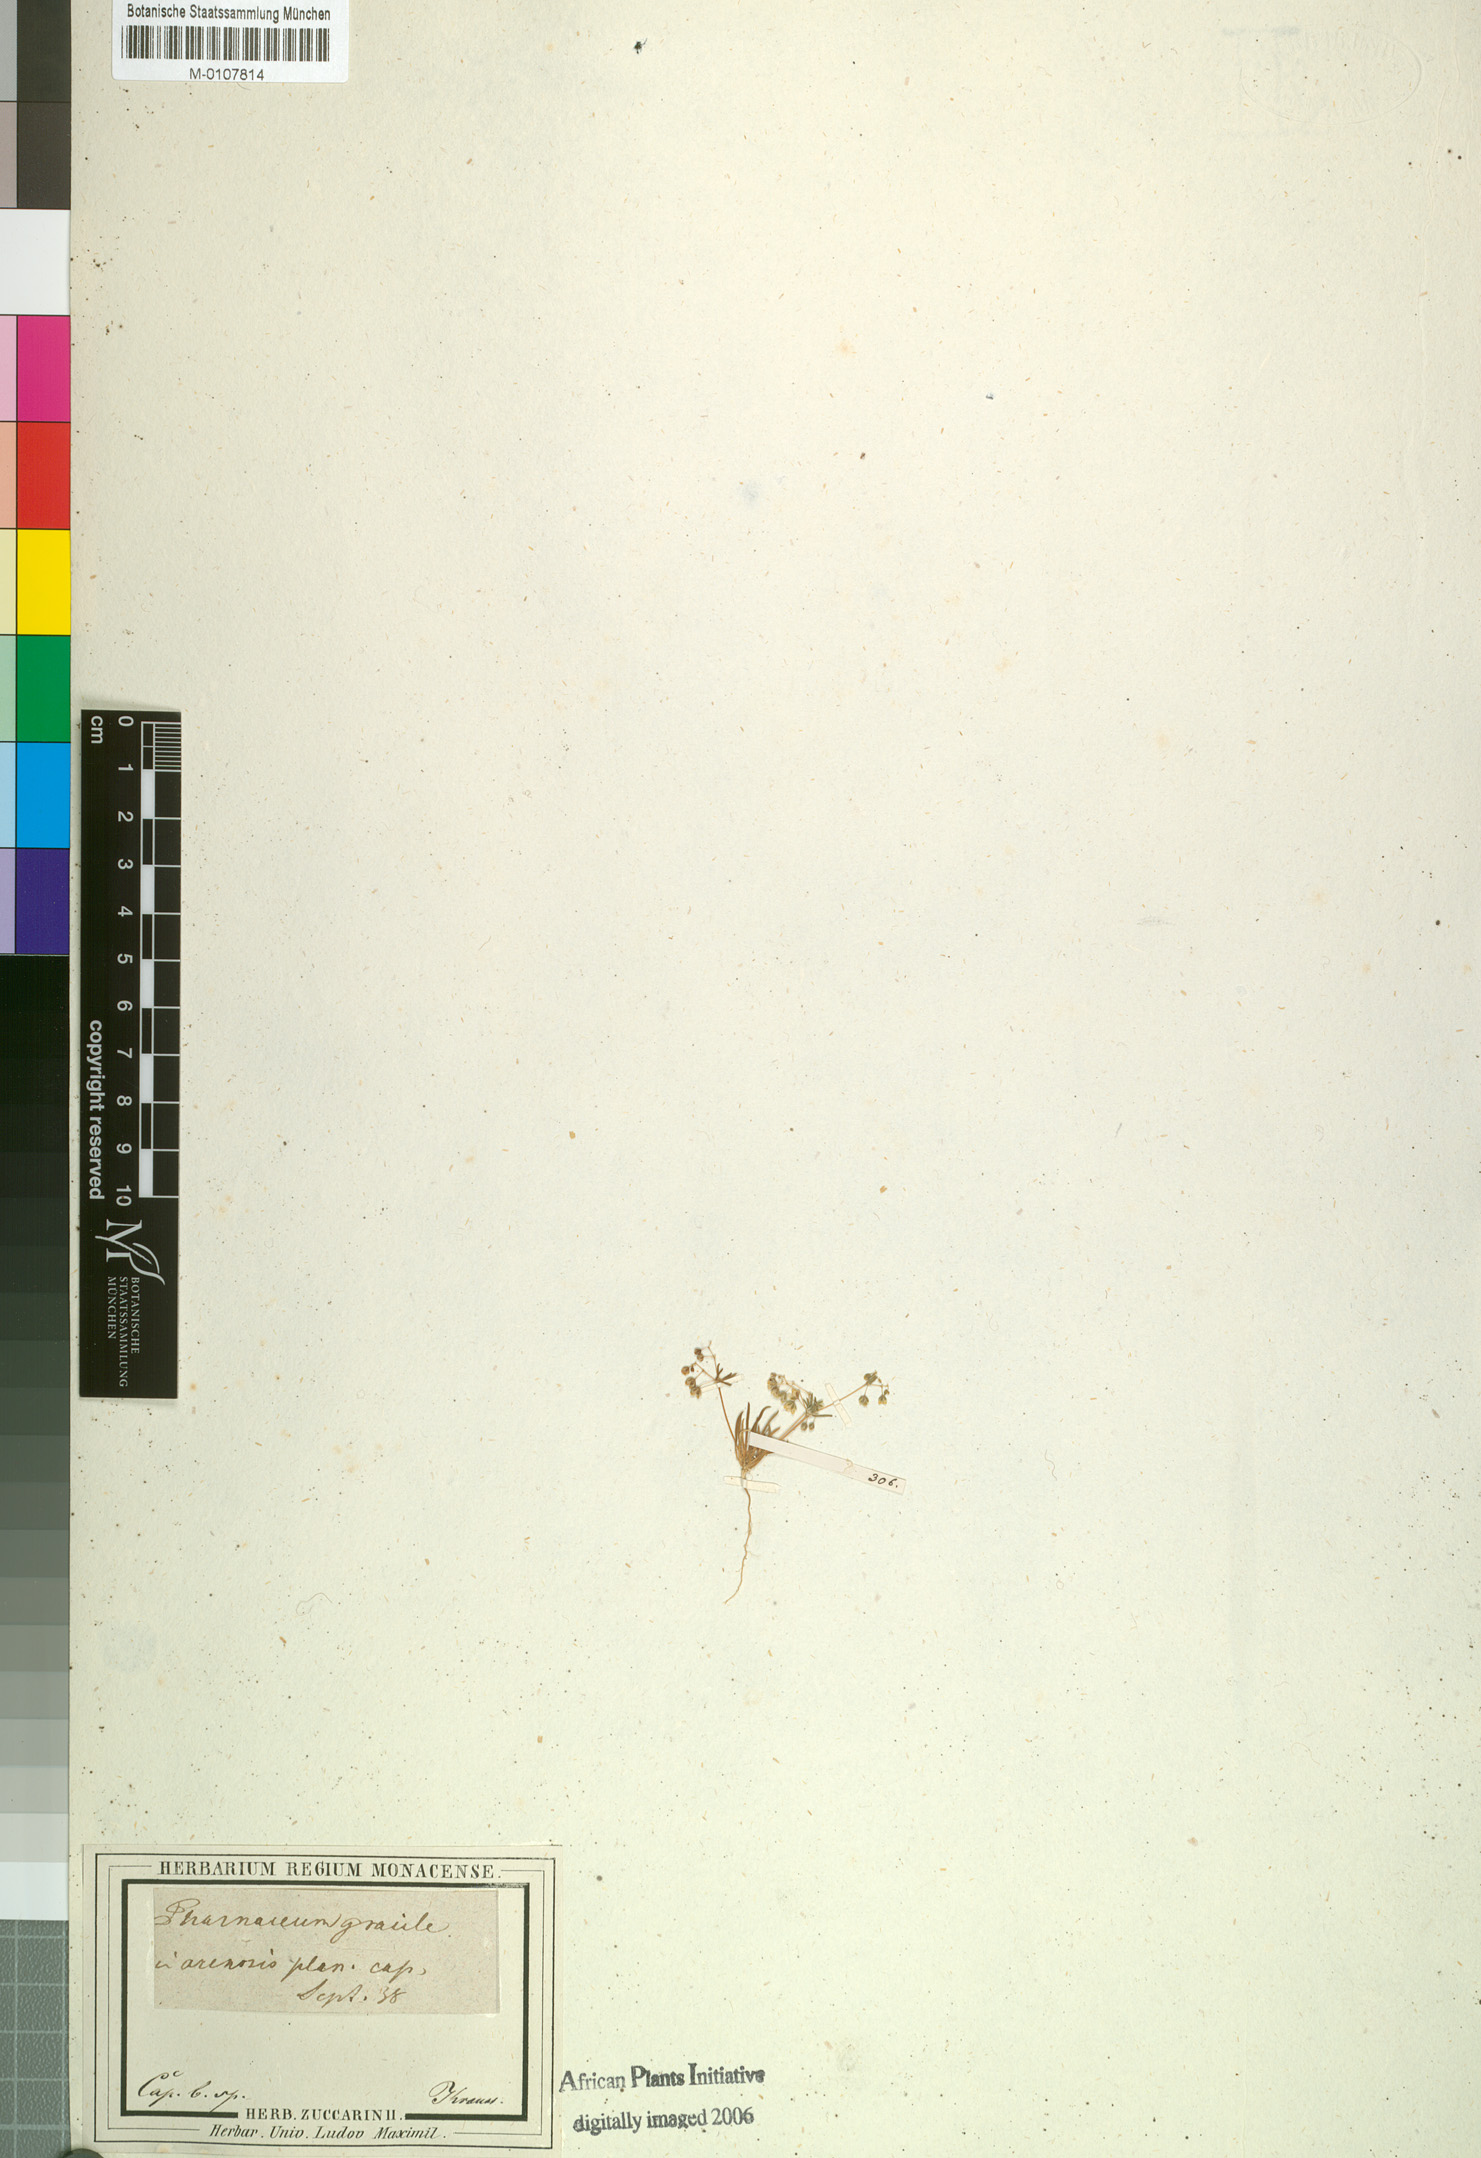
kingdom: Plantae
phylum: Tracheophyta
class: Magnoliopsida
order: Caryophyllales
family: Molluginaceae
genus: Pharnaceum
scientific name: Pharnaceum gracile
